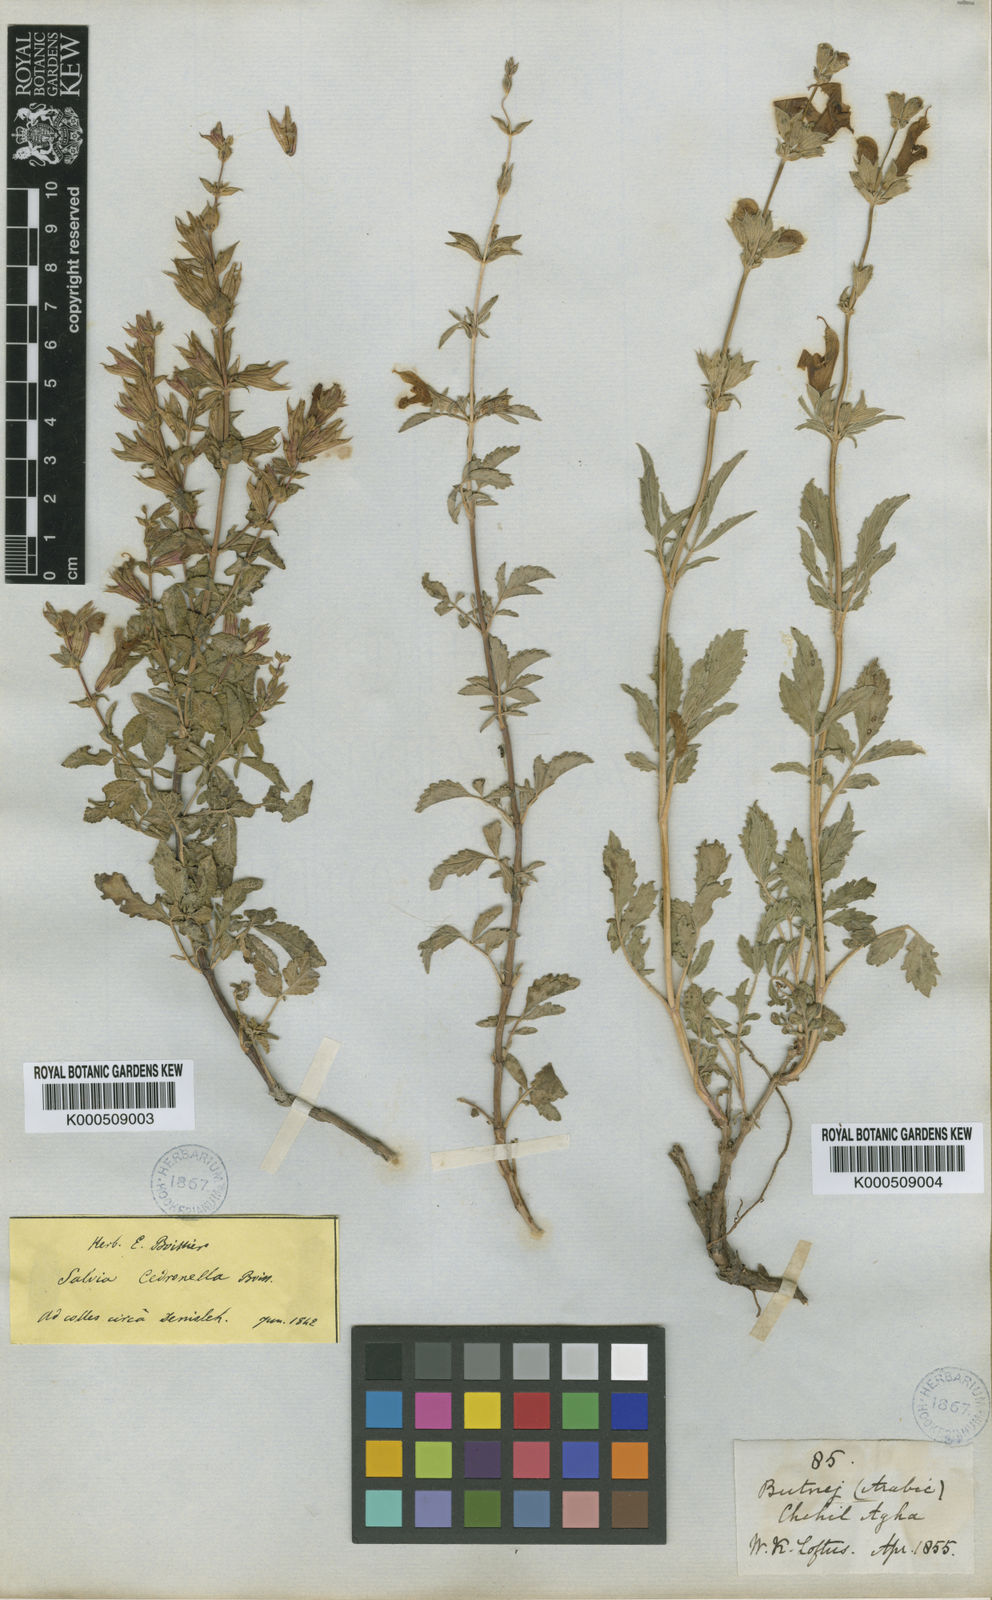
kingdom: Plantae
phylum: Tracheophyta
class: Magnoliopsida
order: Lamiales
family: Lamiaceae
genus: Salvia
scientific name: Salvia cedronella
